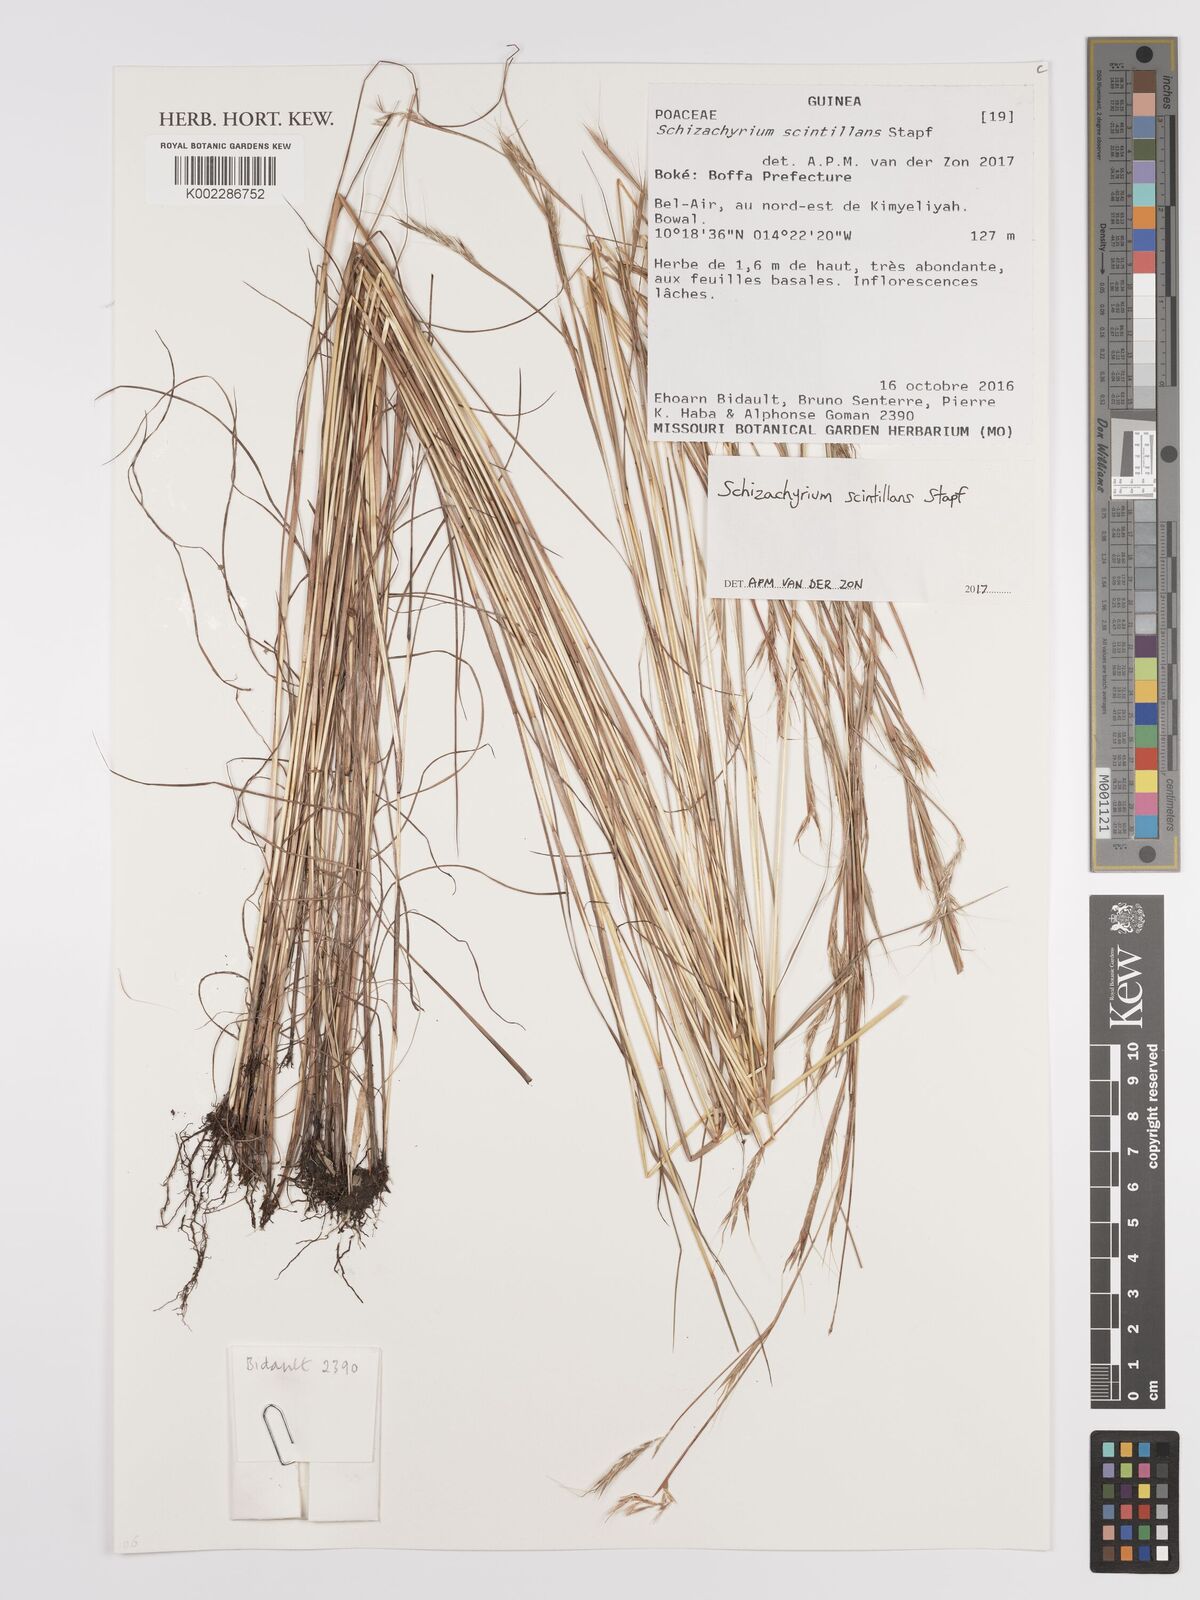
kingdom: Plantae
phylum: Tracheophyta
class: Liliopsida
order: Poales
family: Poaceae
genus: Schizachyrium
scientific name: Schizachyrium scintillans
